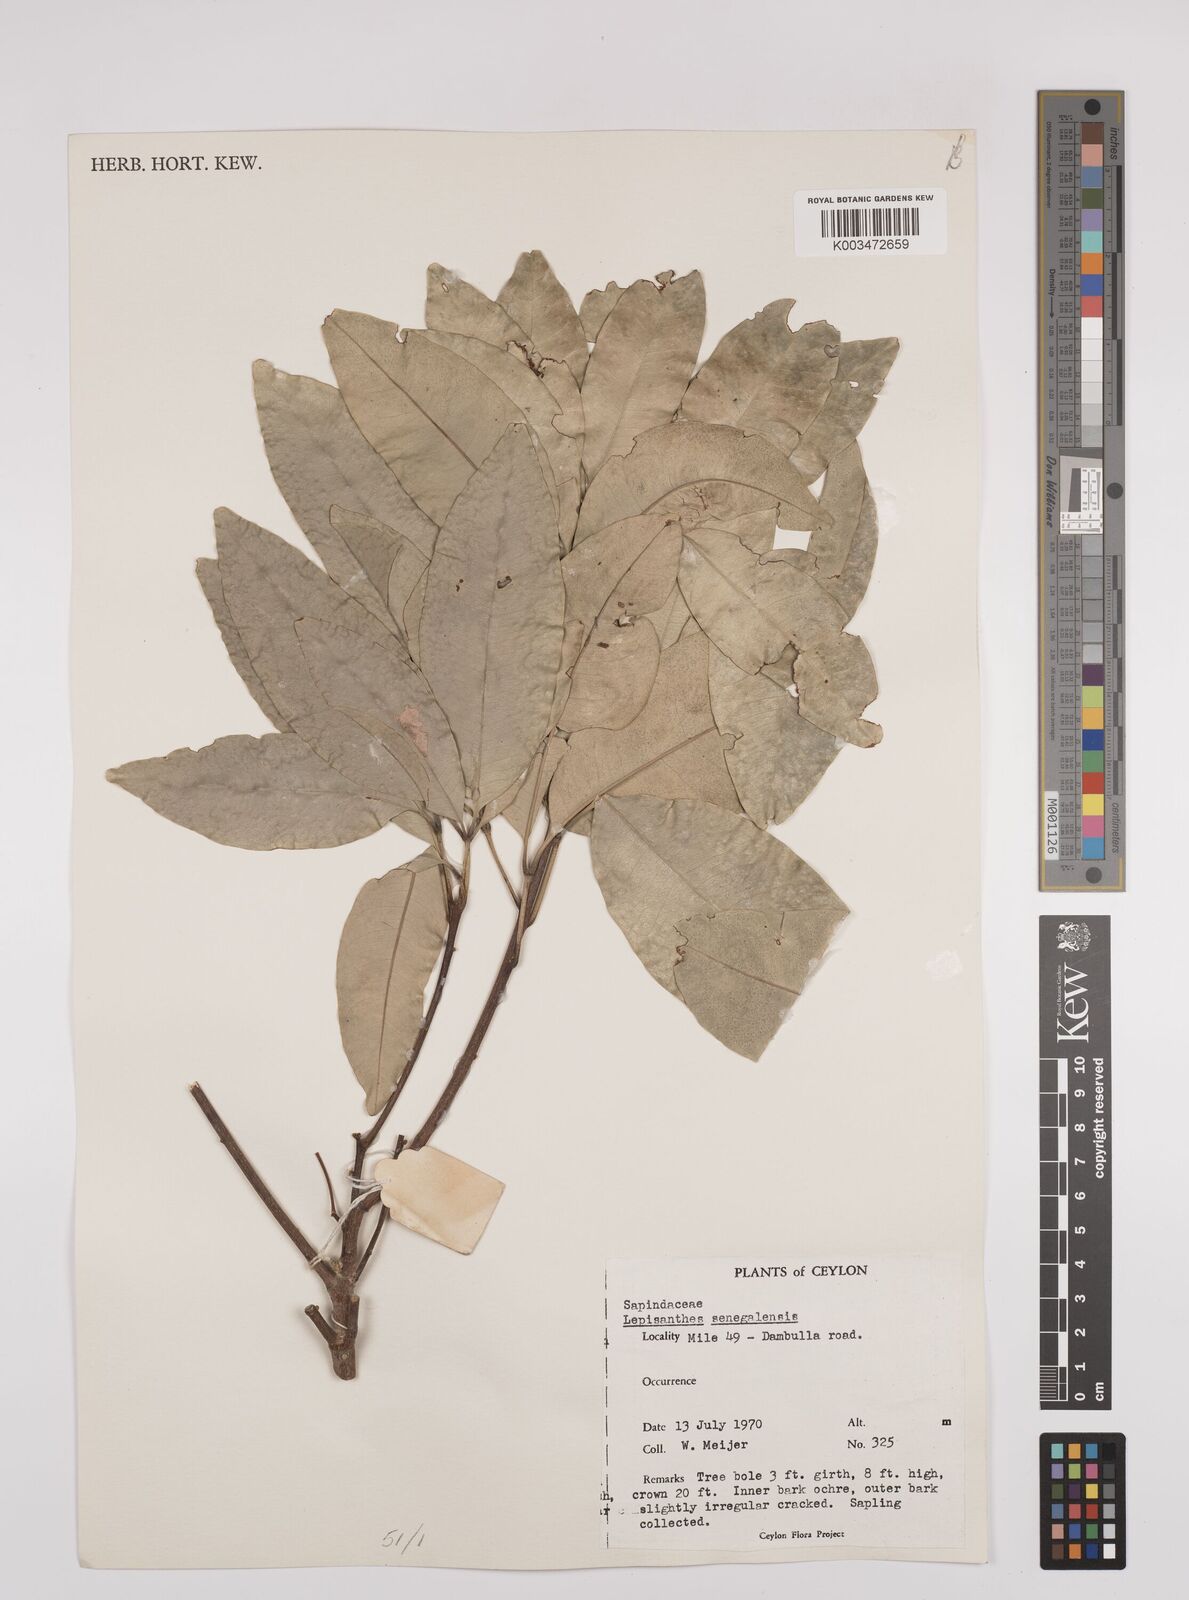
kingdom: Plantae
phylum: Tracheophyta
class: Magnoliopsida
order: Sapindales
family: Sapindaceae
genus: Lepisanthes
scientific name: Lepisanthes senegalensis
